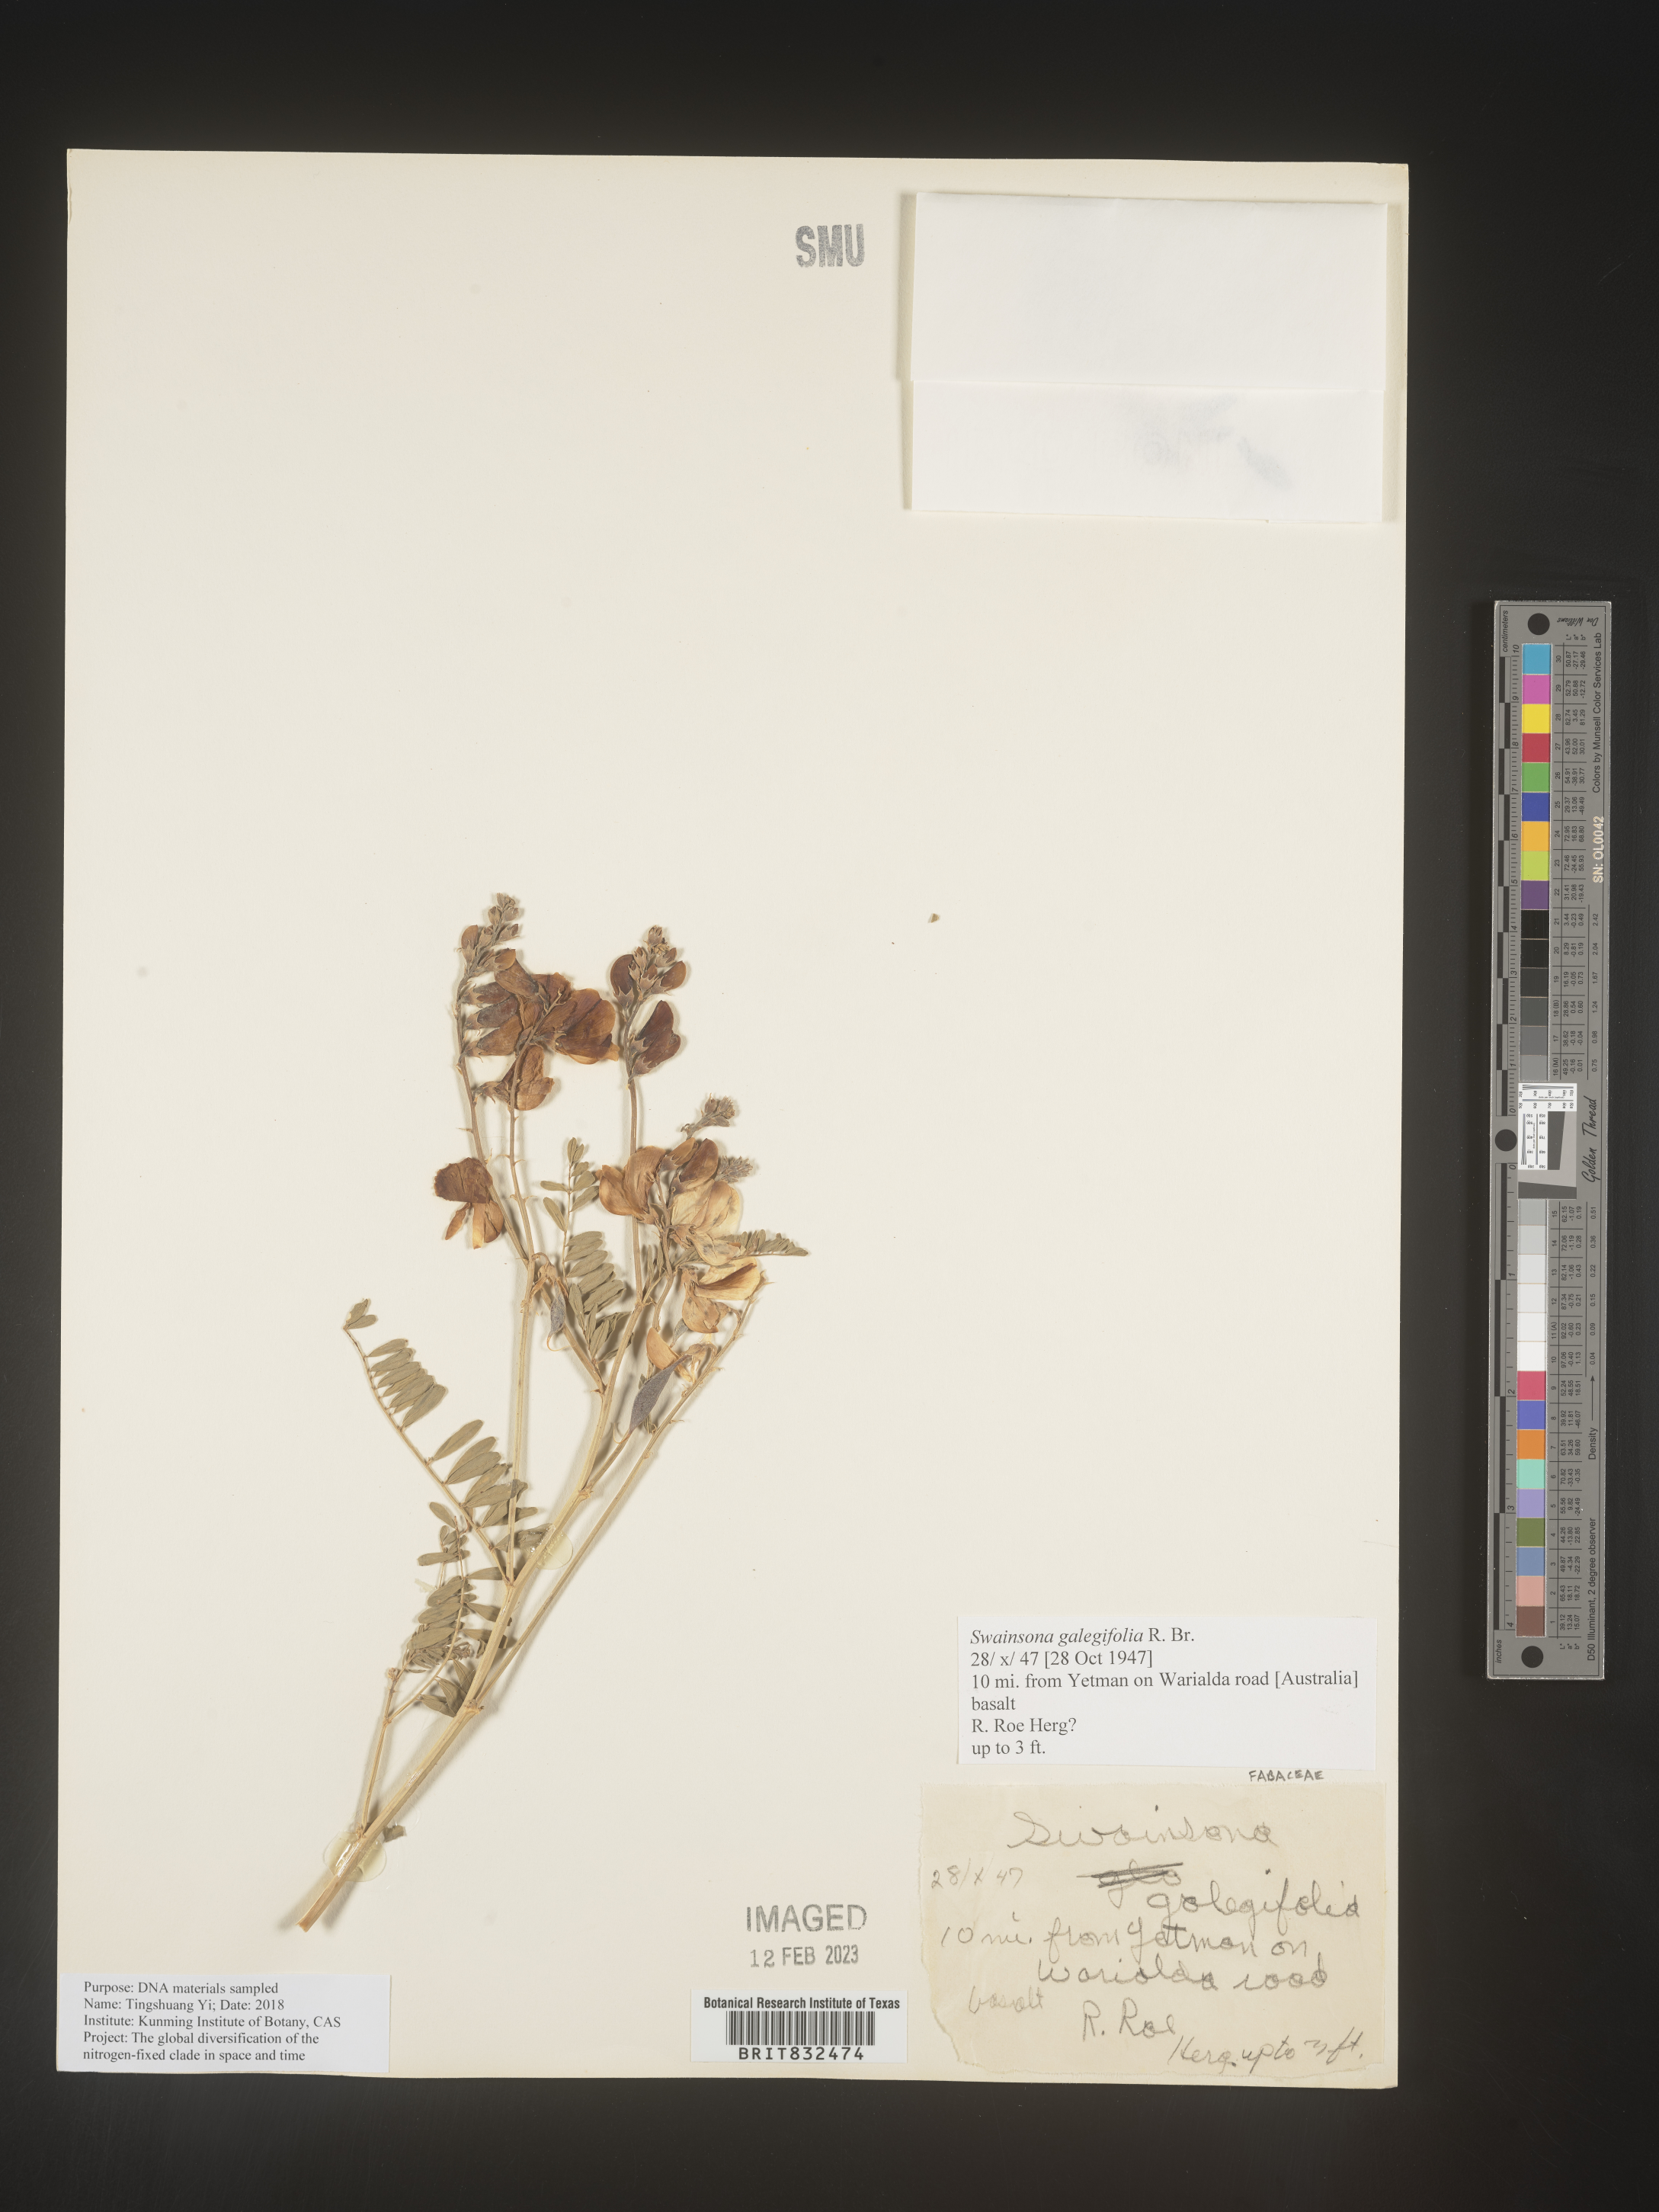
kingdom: Plantae
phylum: Tracheophyta
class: Magnoliopsida
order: Fabales
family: Fabaceae
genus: Swainsona
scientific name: Swainsona
